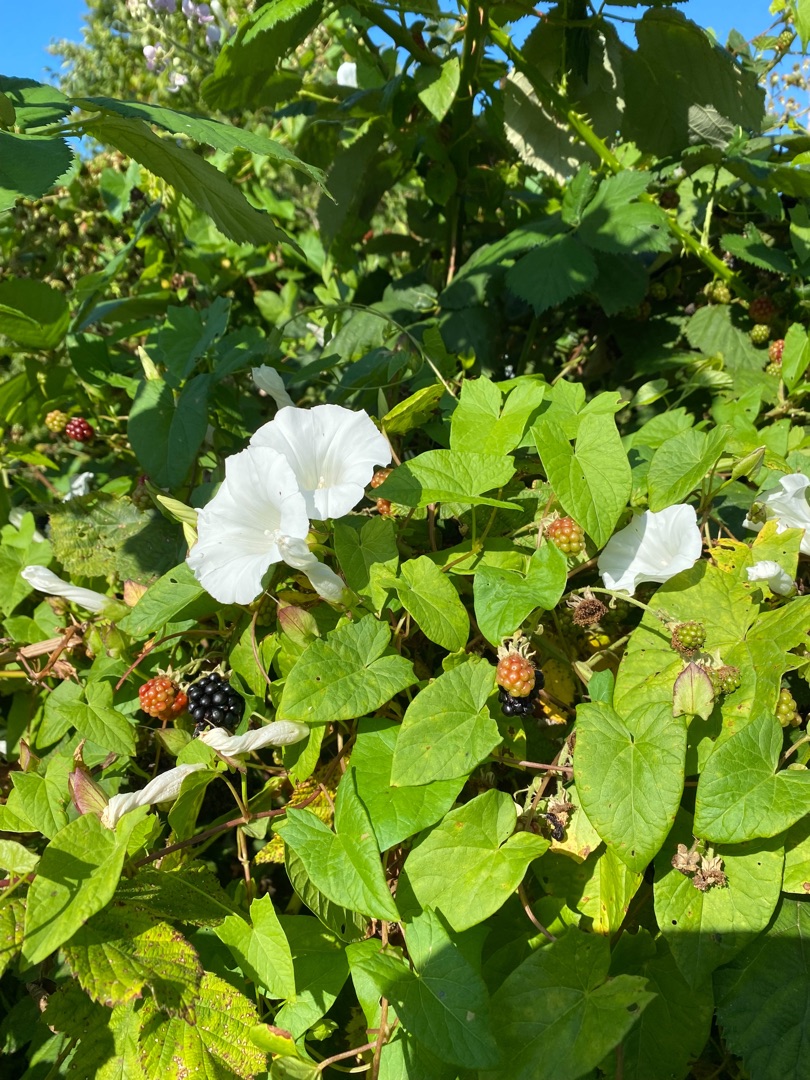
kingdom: Plantae
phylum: Tracheophyta
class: Magnoliopsida
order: Solanales
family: Convolvulaceae
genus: Calystegia
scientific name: Calystegia sepium
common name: Gærde-snerle
